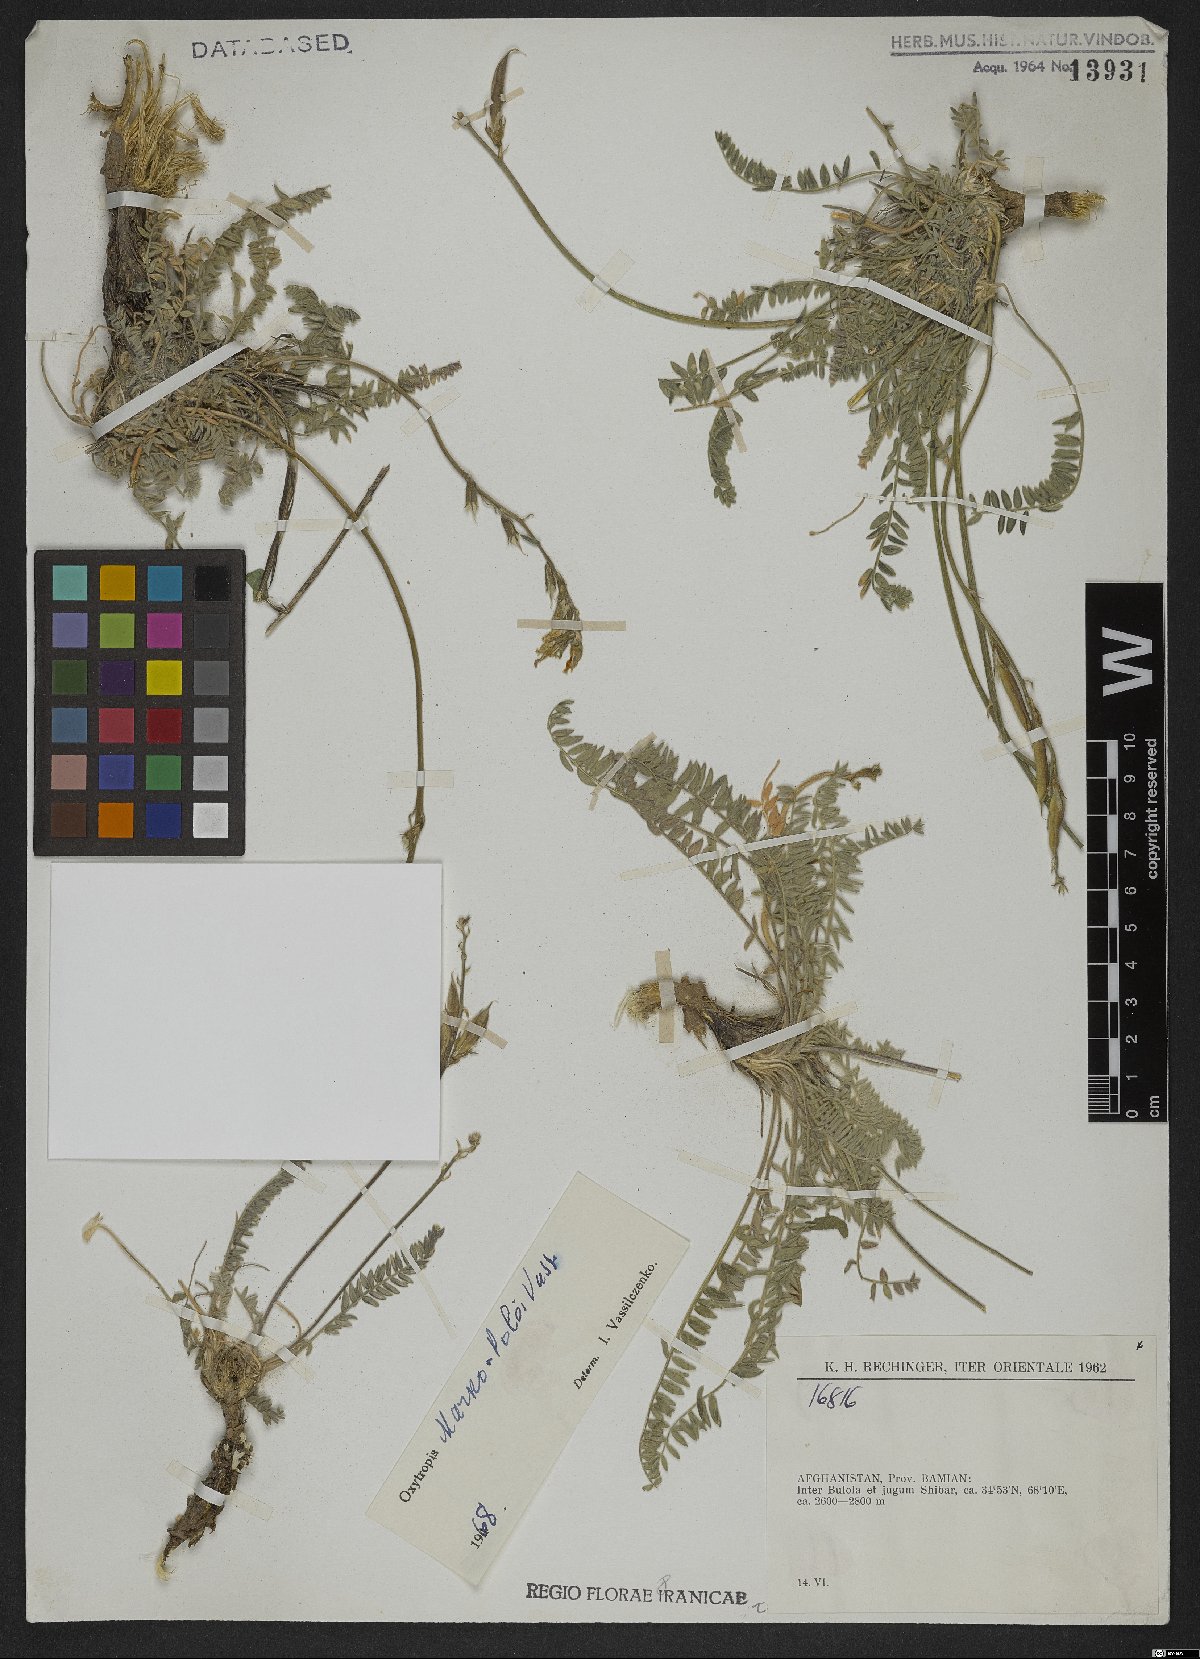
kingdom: Plantae
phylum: Tracheophyta
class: Magnoliopsida
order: Fabales
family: Fabaceae
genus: Oxytropis
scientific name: Oxytropis marco-poloi
